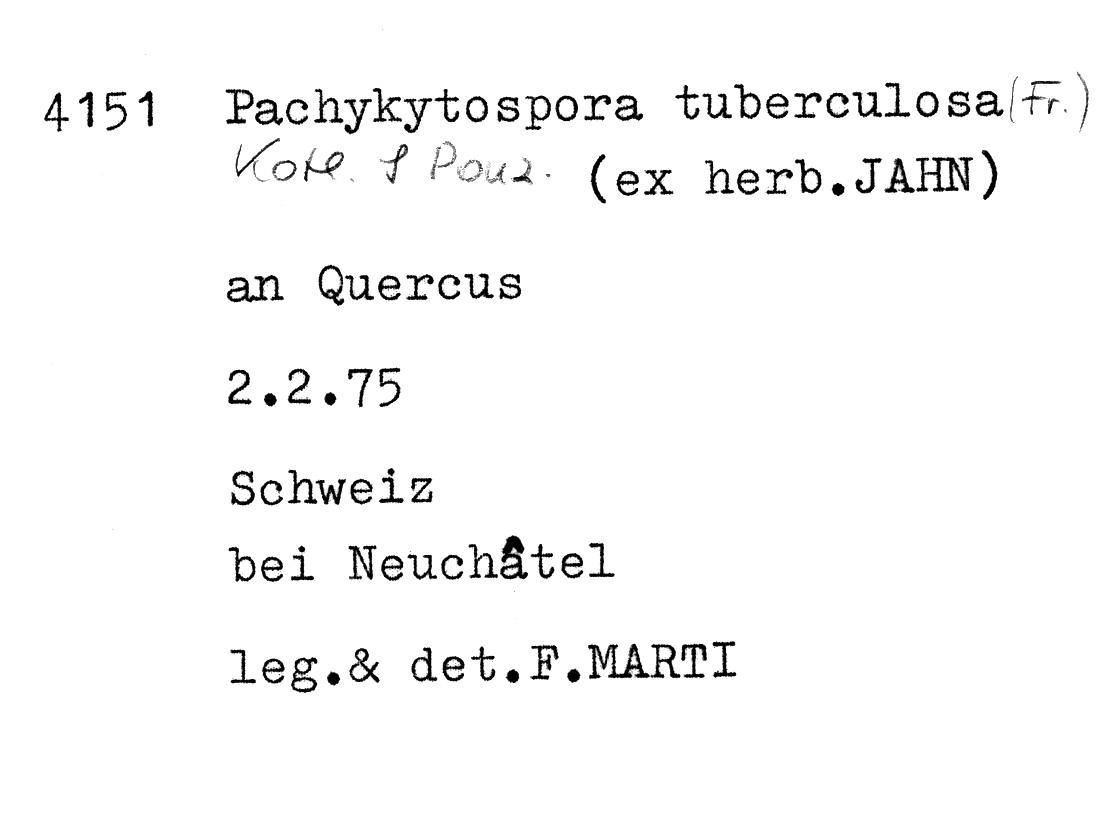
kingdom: Fungi
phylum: Basidiomycota
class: Agaricomycetes
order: Polyporales
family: Polyporaceae
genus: Pachykytospora
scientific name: Pachykytospora tuberculosa
